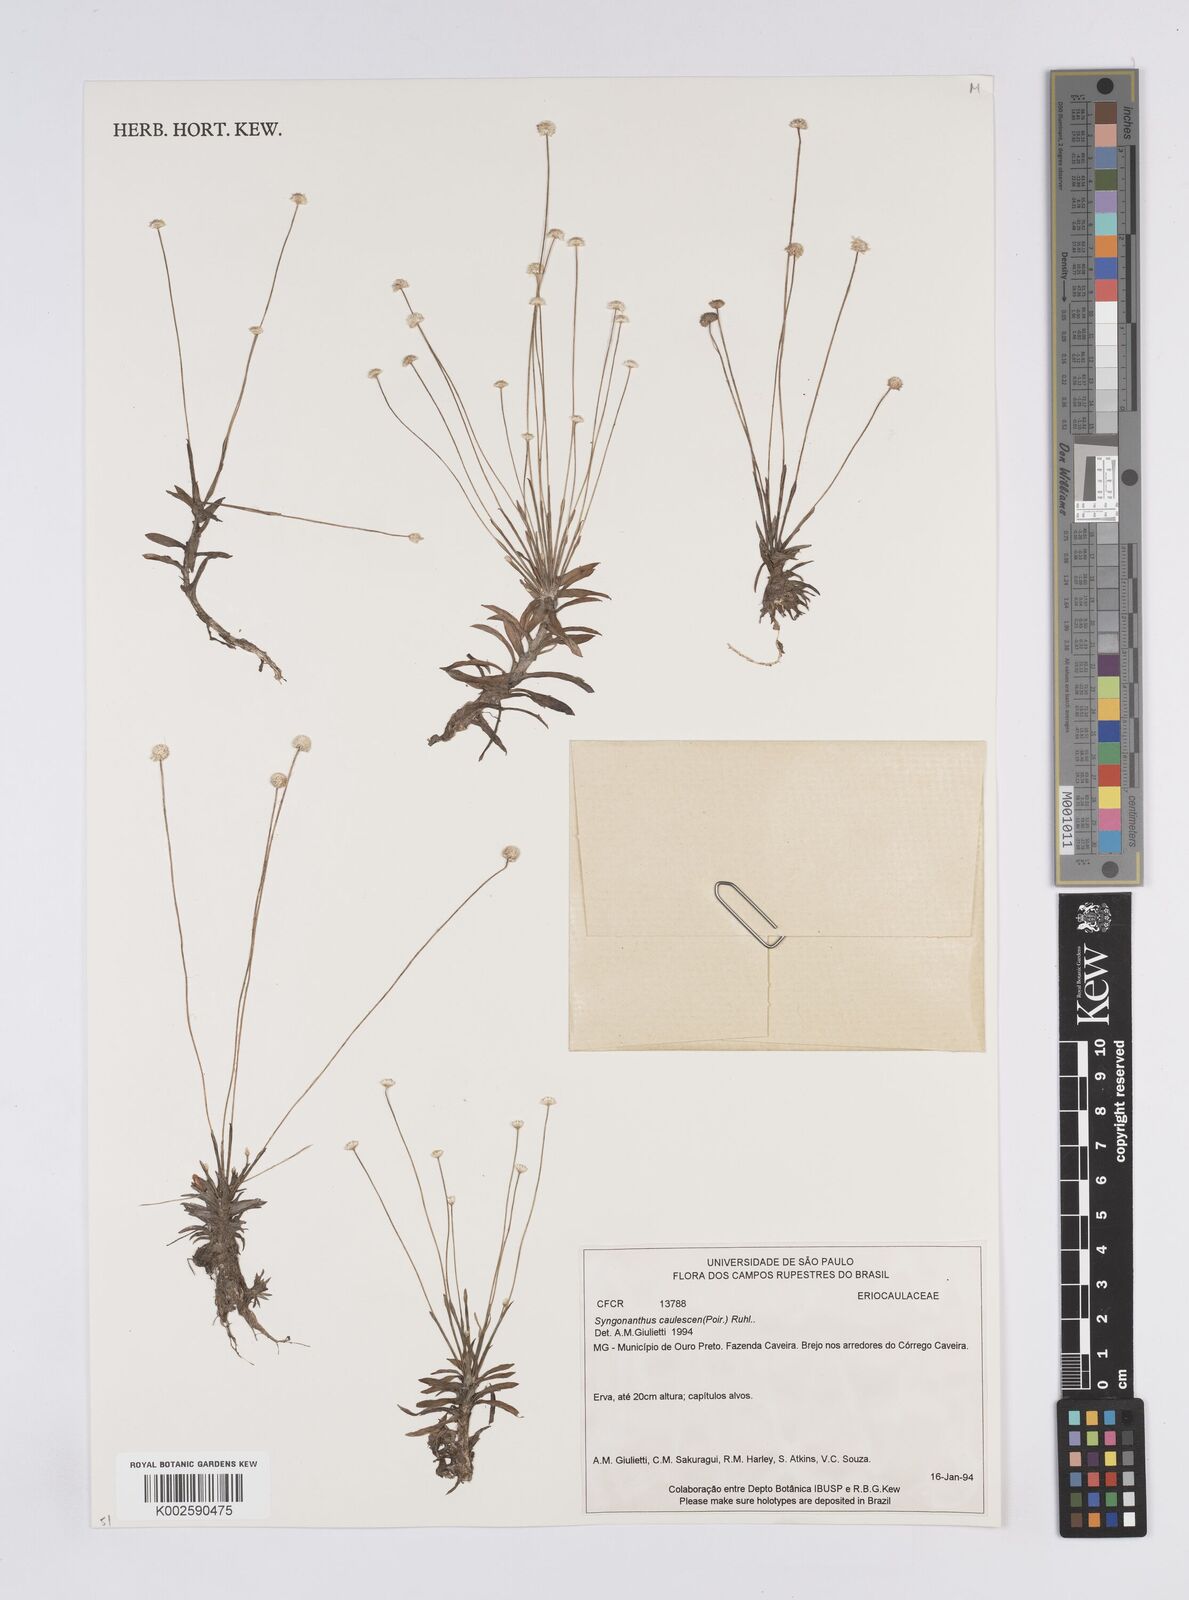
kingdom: Plantae
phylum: Tracheophyta
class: Liliopsida
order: Poales
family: Eriocaulaceae
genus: Syngonanthus
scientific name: Syngonanthus caulescens
